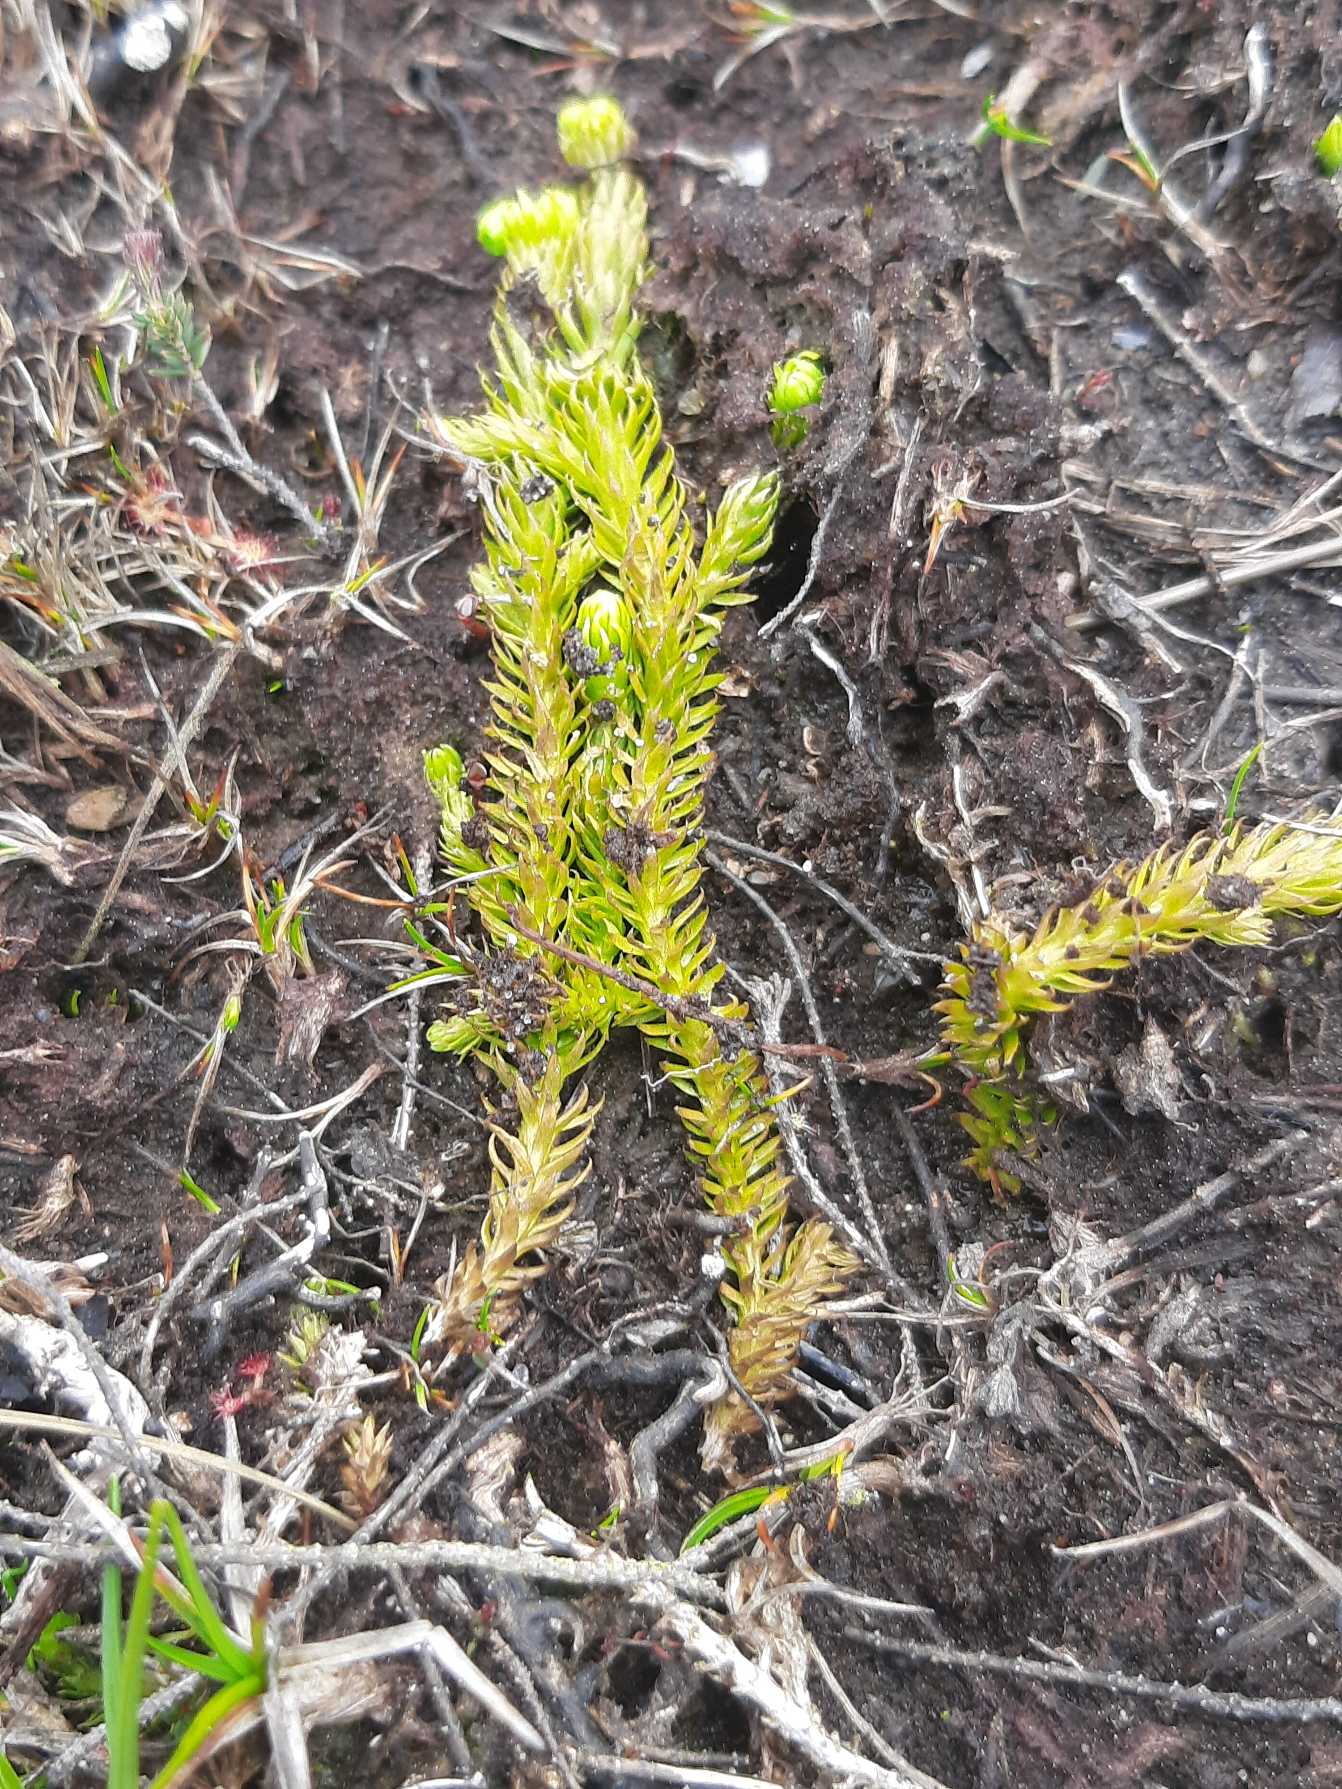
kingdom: Plantae
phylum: Tracheophyta
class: Lycopodiopsida
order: Lycopodiales
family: Lycopodiaceae
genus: Lycopodiella
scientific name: Lycopodiella inundata
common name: Liden ulvefod
